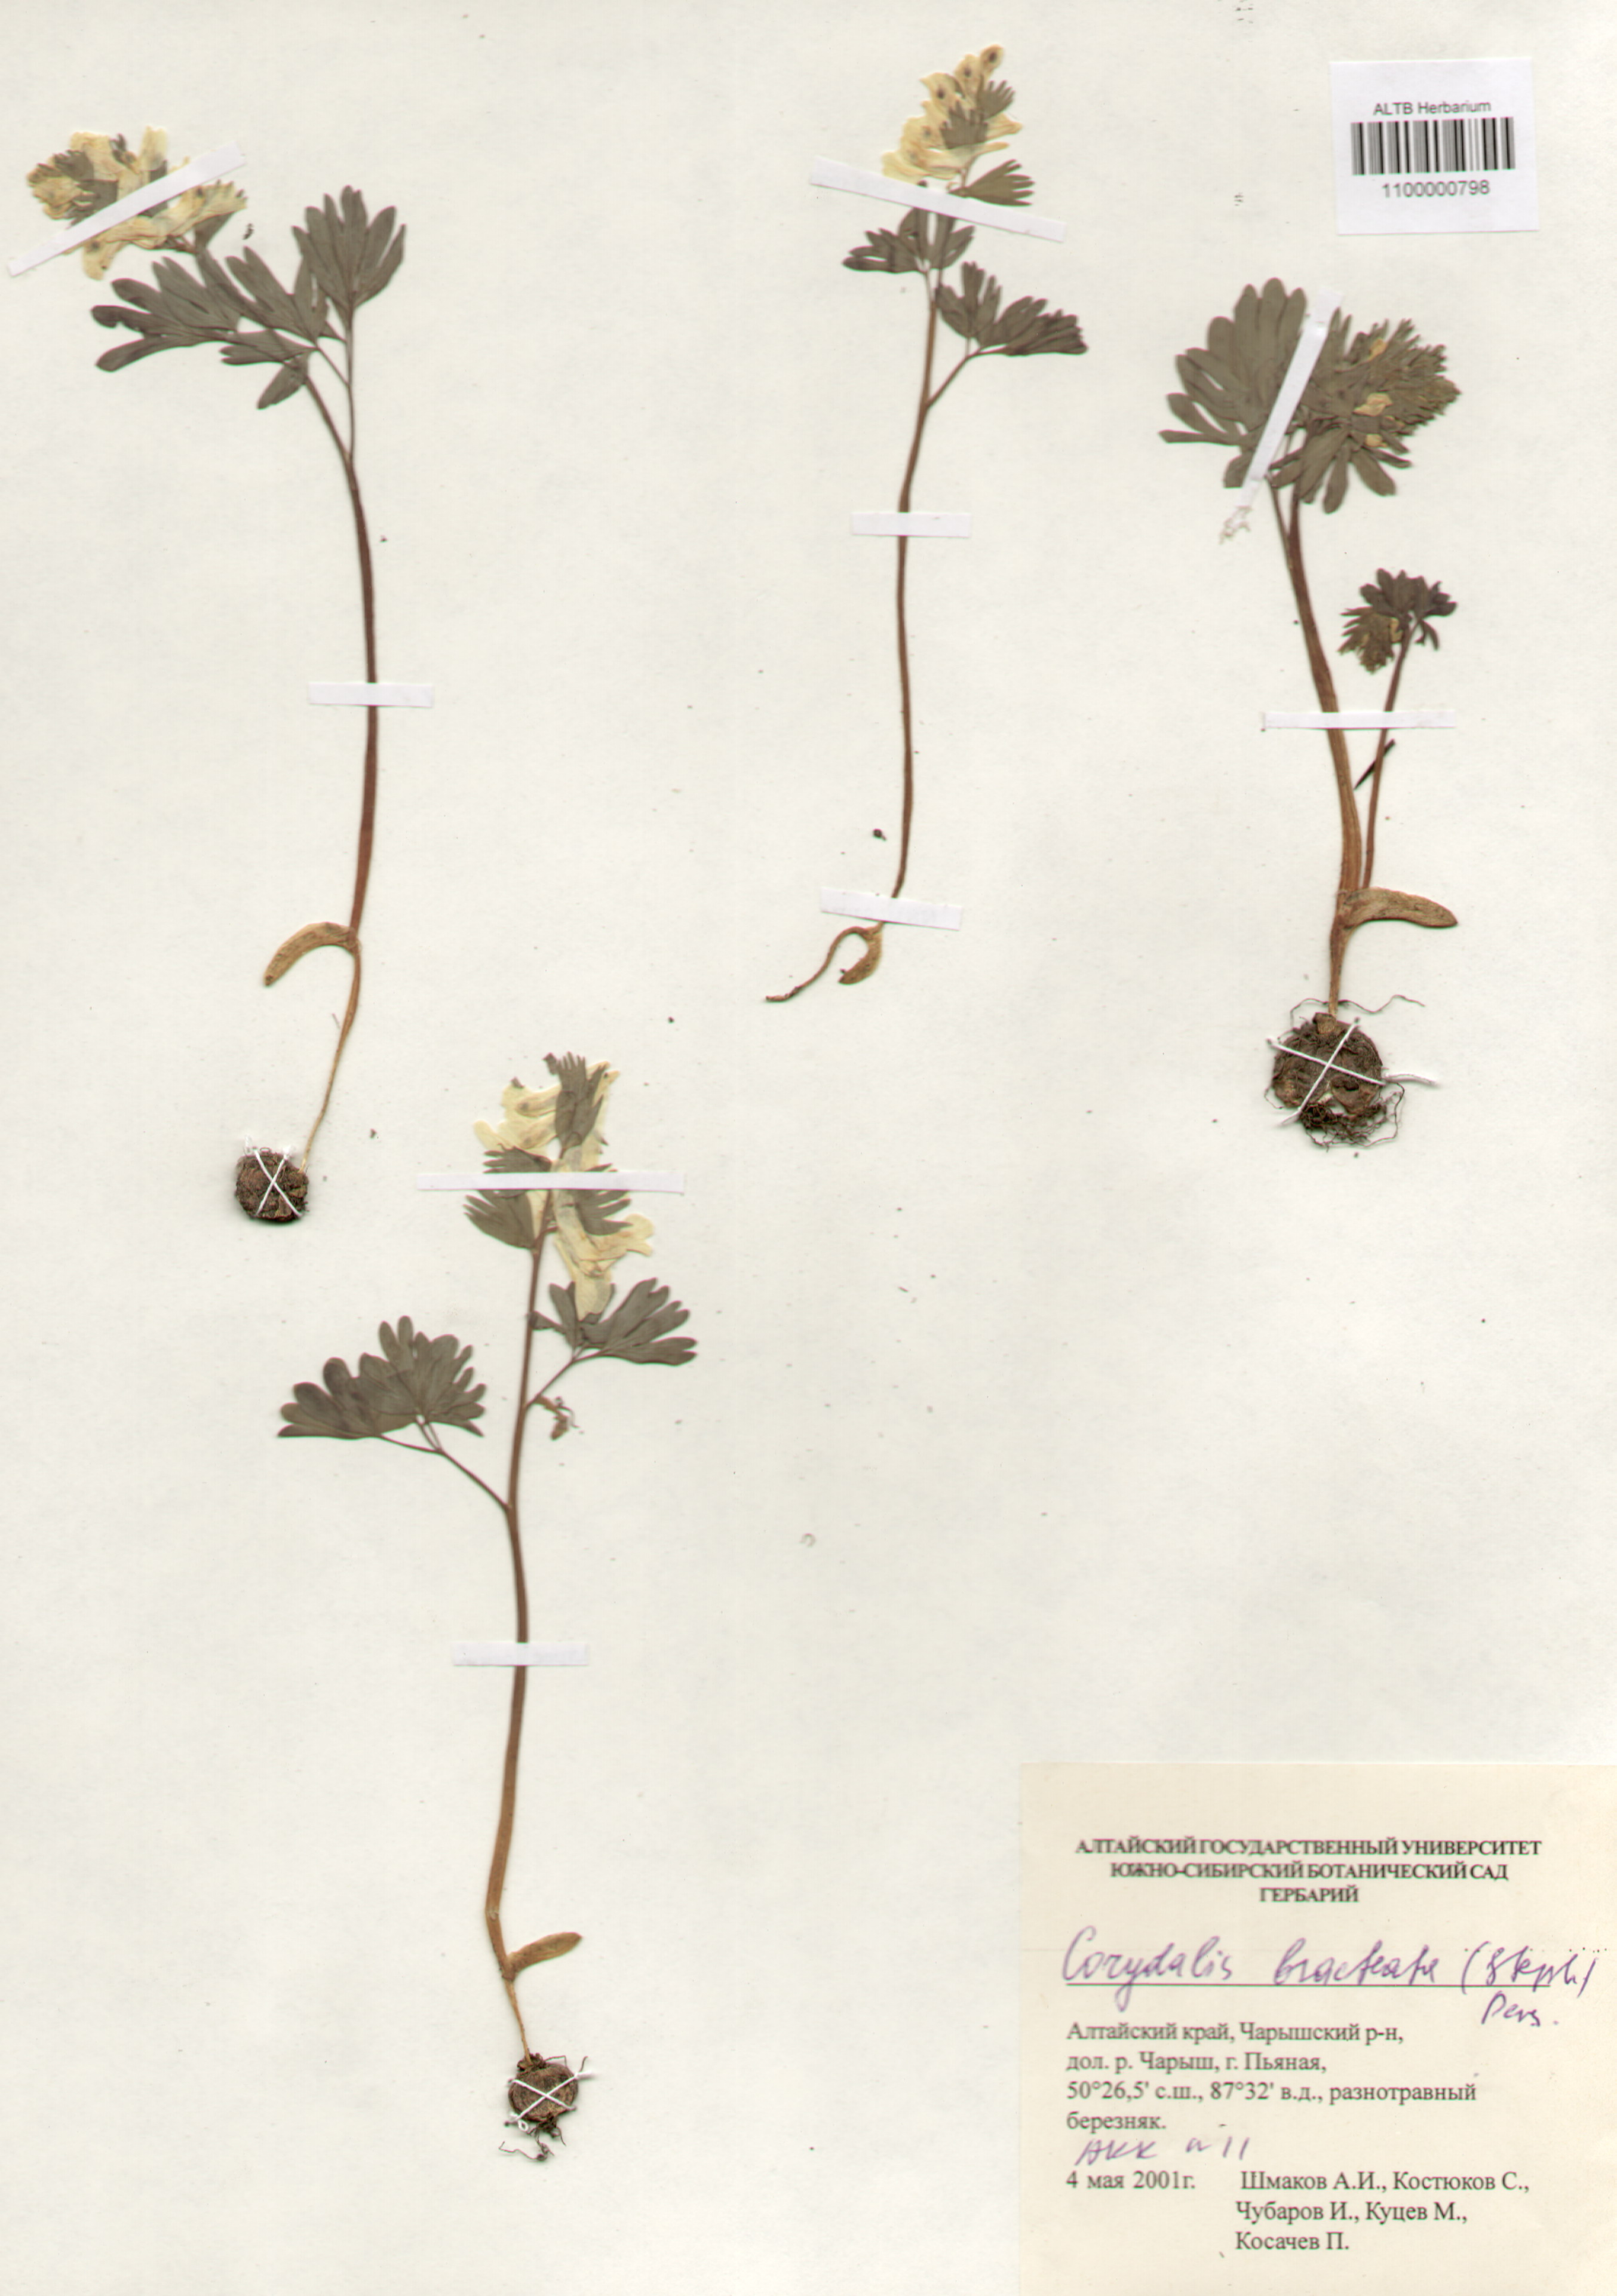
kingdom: Plantae
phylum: Tracheophyta
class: Magnoliopsida
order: Ranunculales
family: Papaveraceae
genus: Corydalis
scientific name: Corydalis bracteata
